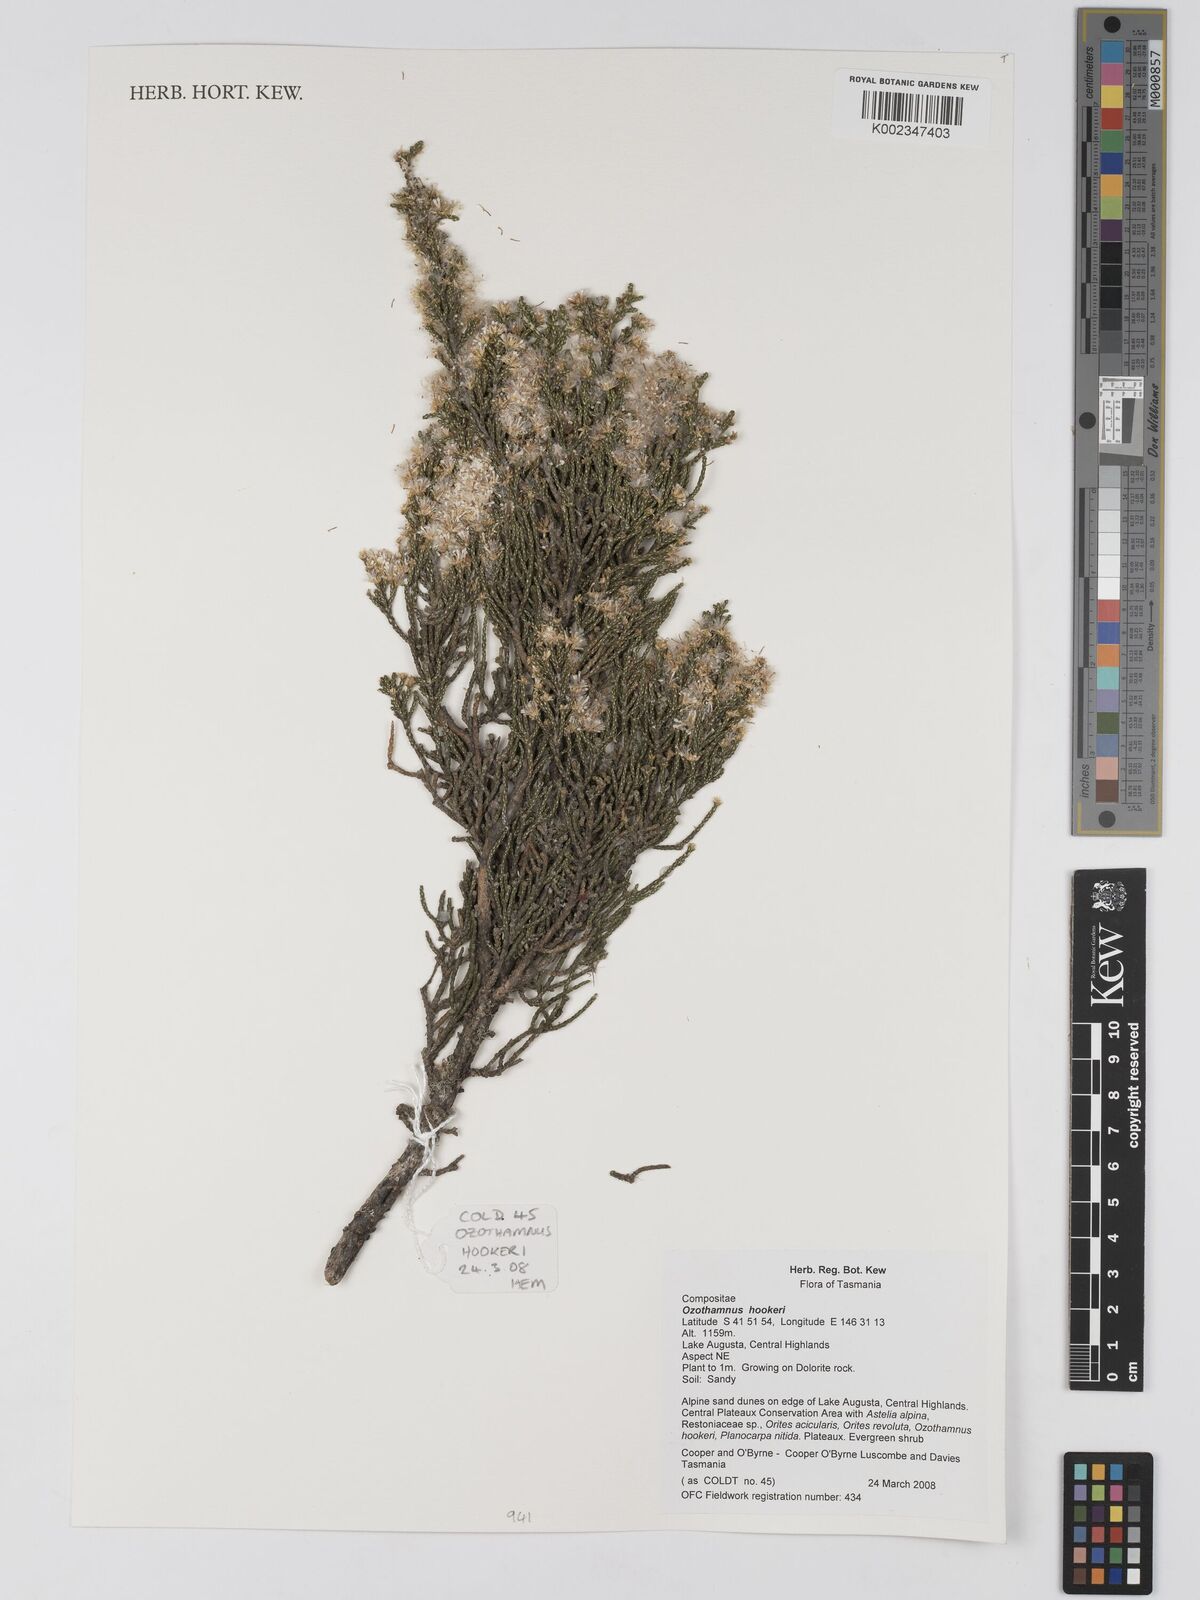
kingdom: Plantae
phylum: Tracheophyta
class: Magnoliopsida
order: Asterales
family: Asteraceae
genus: Ozothamnus
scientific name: Ozothamnus hookeri
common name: Kerosene-bush
